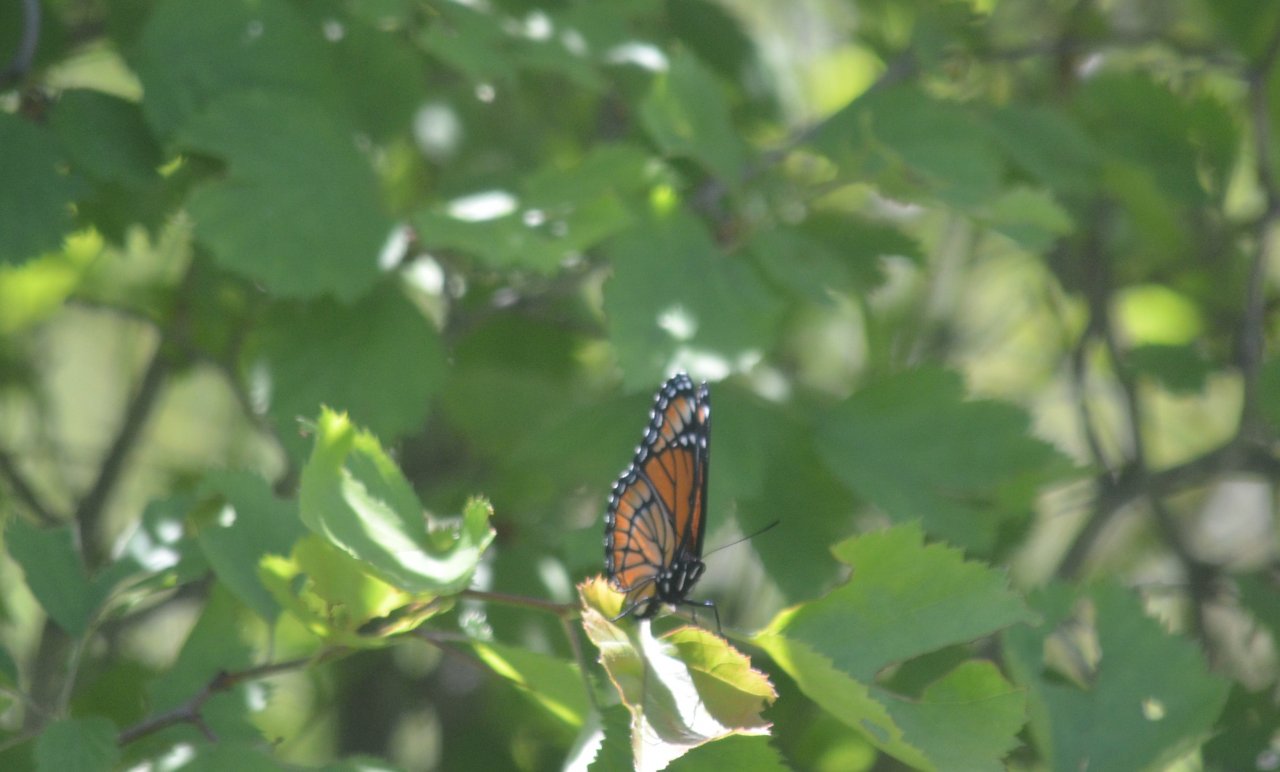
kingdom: Animalia
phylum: Arthropoda
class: Insecta
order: Lepidoptera
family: Nymphalidae
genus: Limenitis
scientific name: Limenitis archippus
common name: Viceroy
